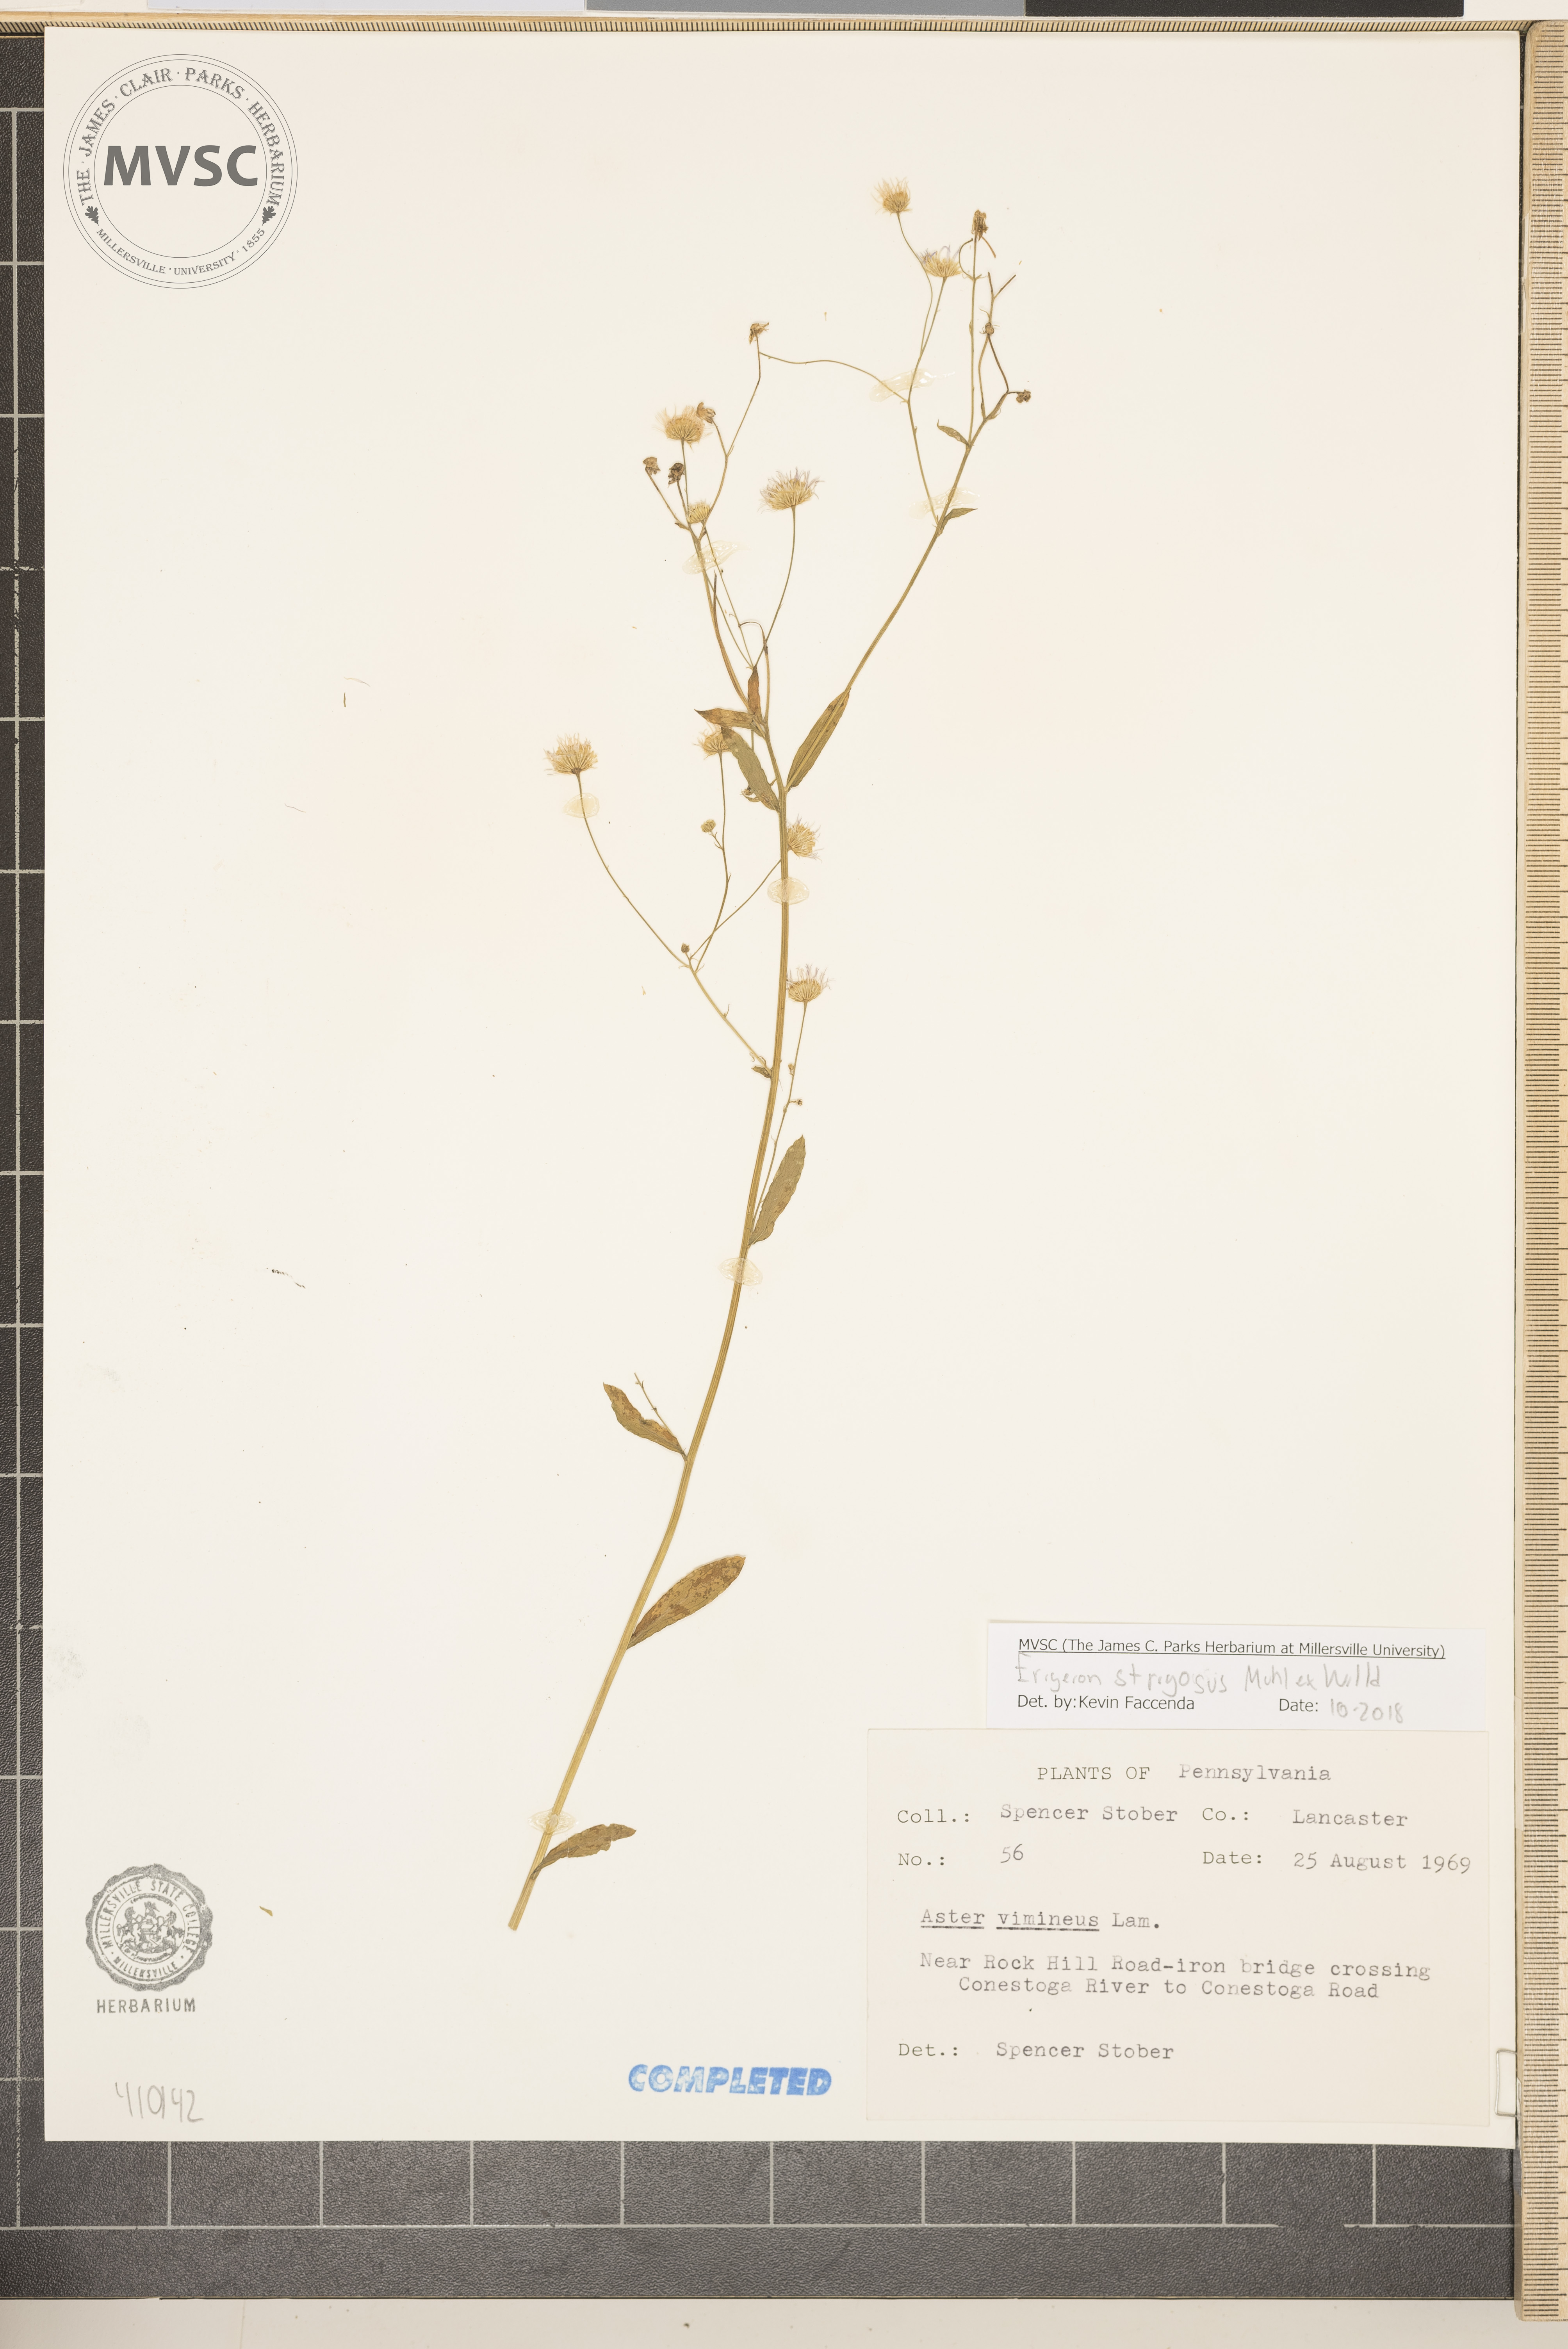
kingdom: Plantae
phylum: Tracheophyta
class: Magnoliopsida
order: Asterales
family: Asteraceae
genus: Erigeron
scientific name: Erigeron strigosus
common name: Common eastern fleabane
